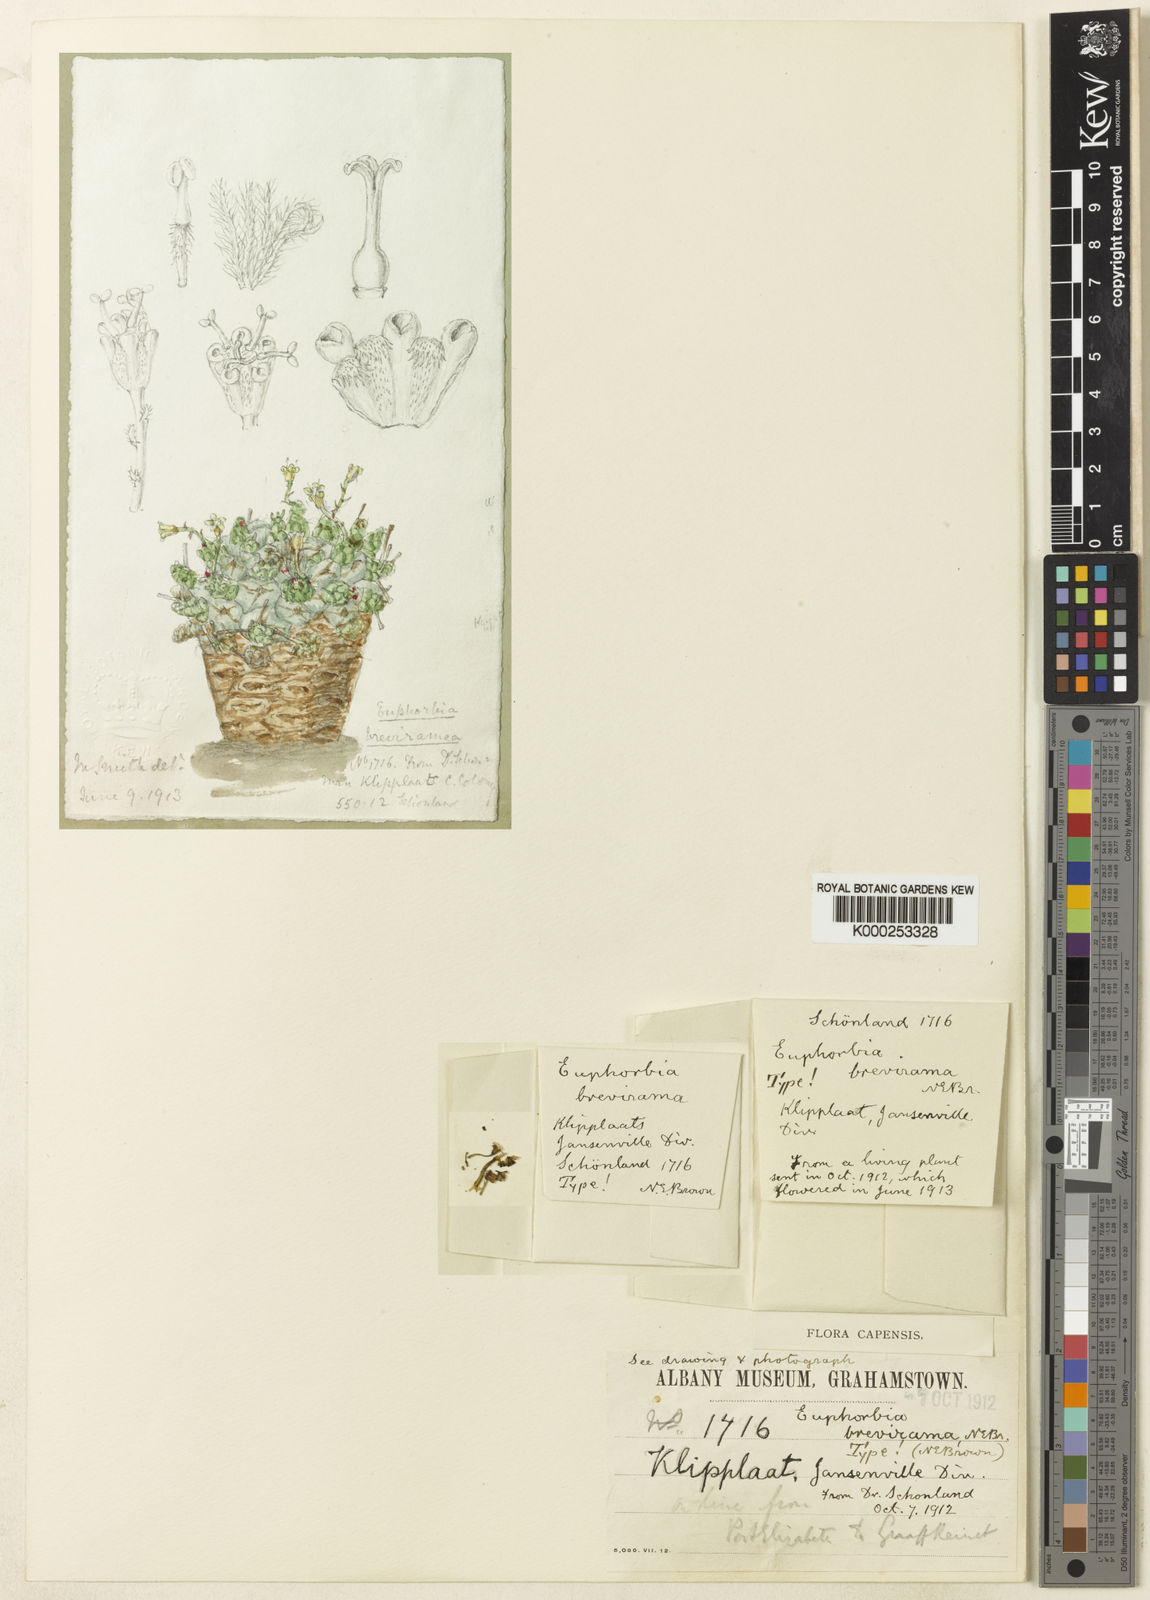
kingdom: Plantae
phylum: Tracheophyta
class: Magnoliopsida
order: Malpighiales
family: Euphorbiaceae
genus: Euphorbia
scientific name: Euphorbia brevirama
